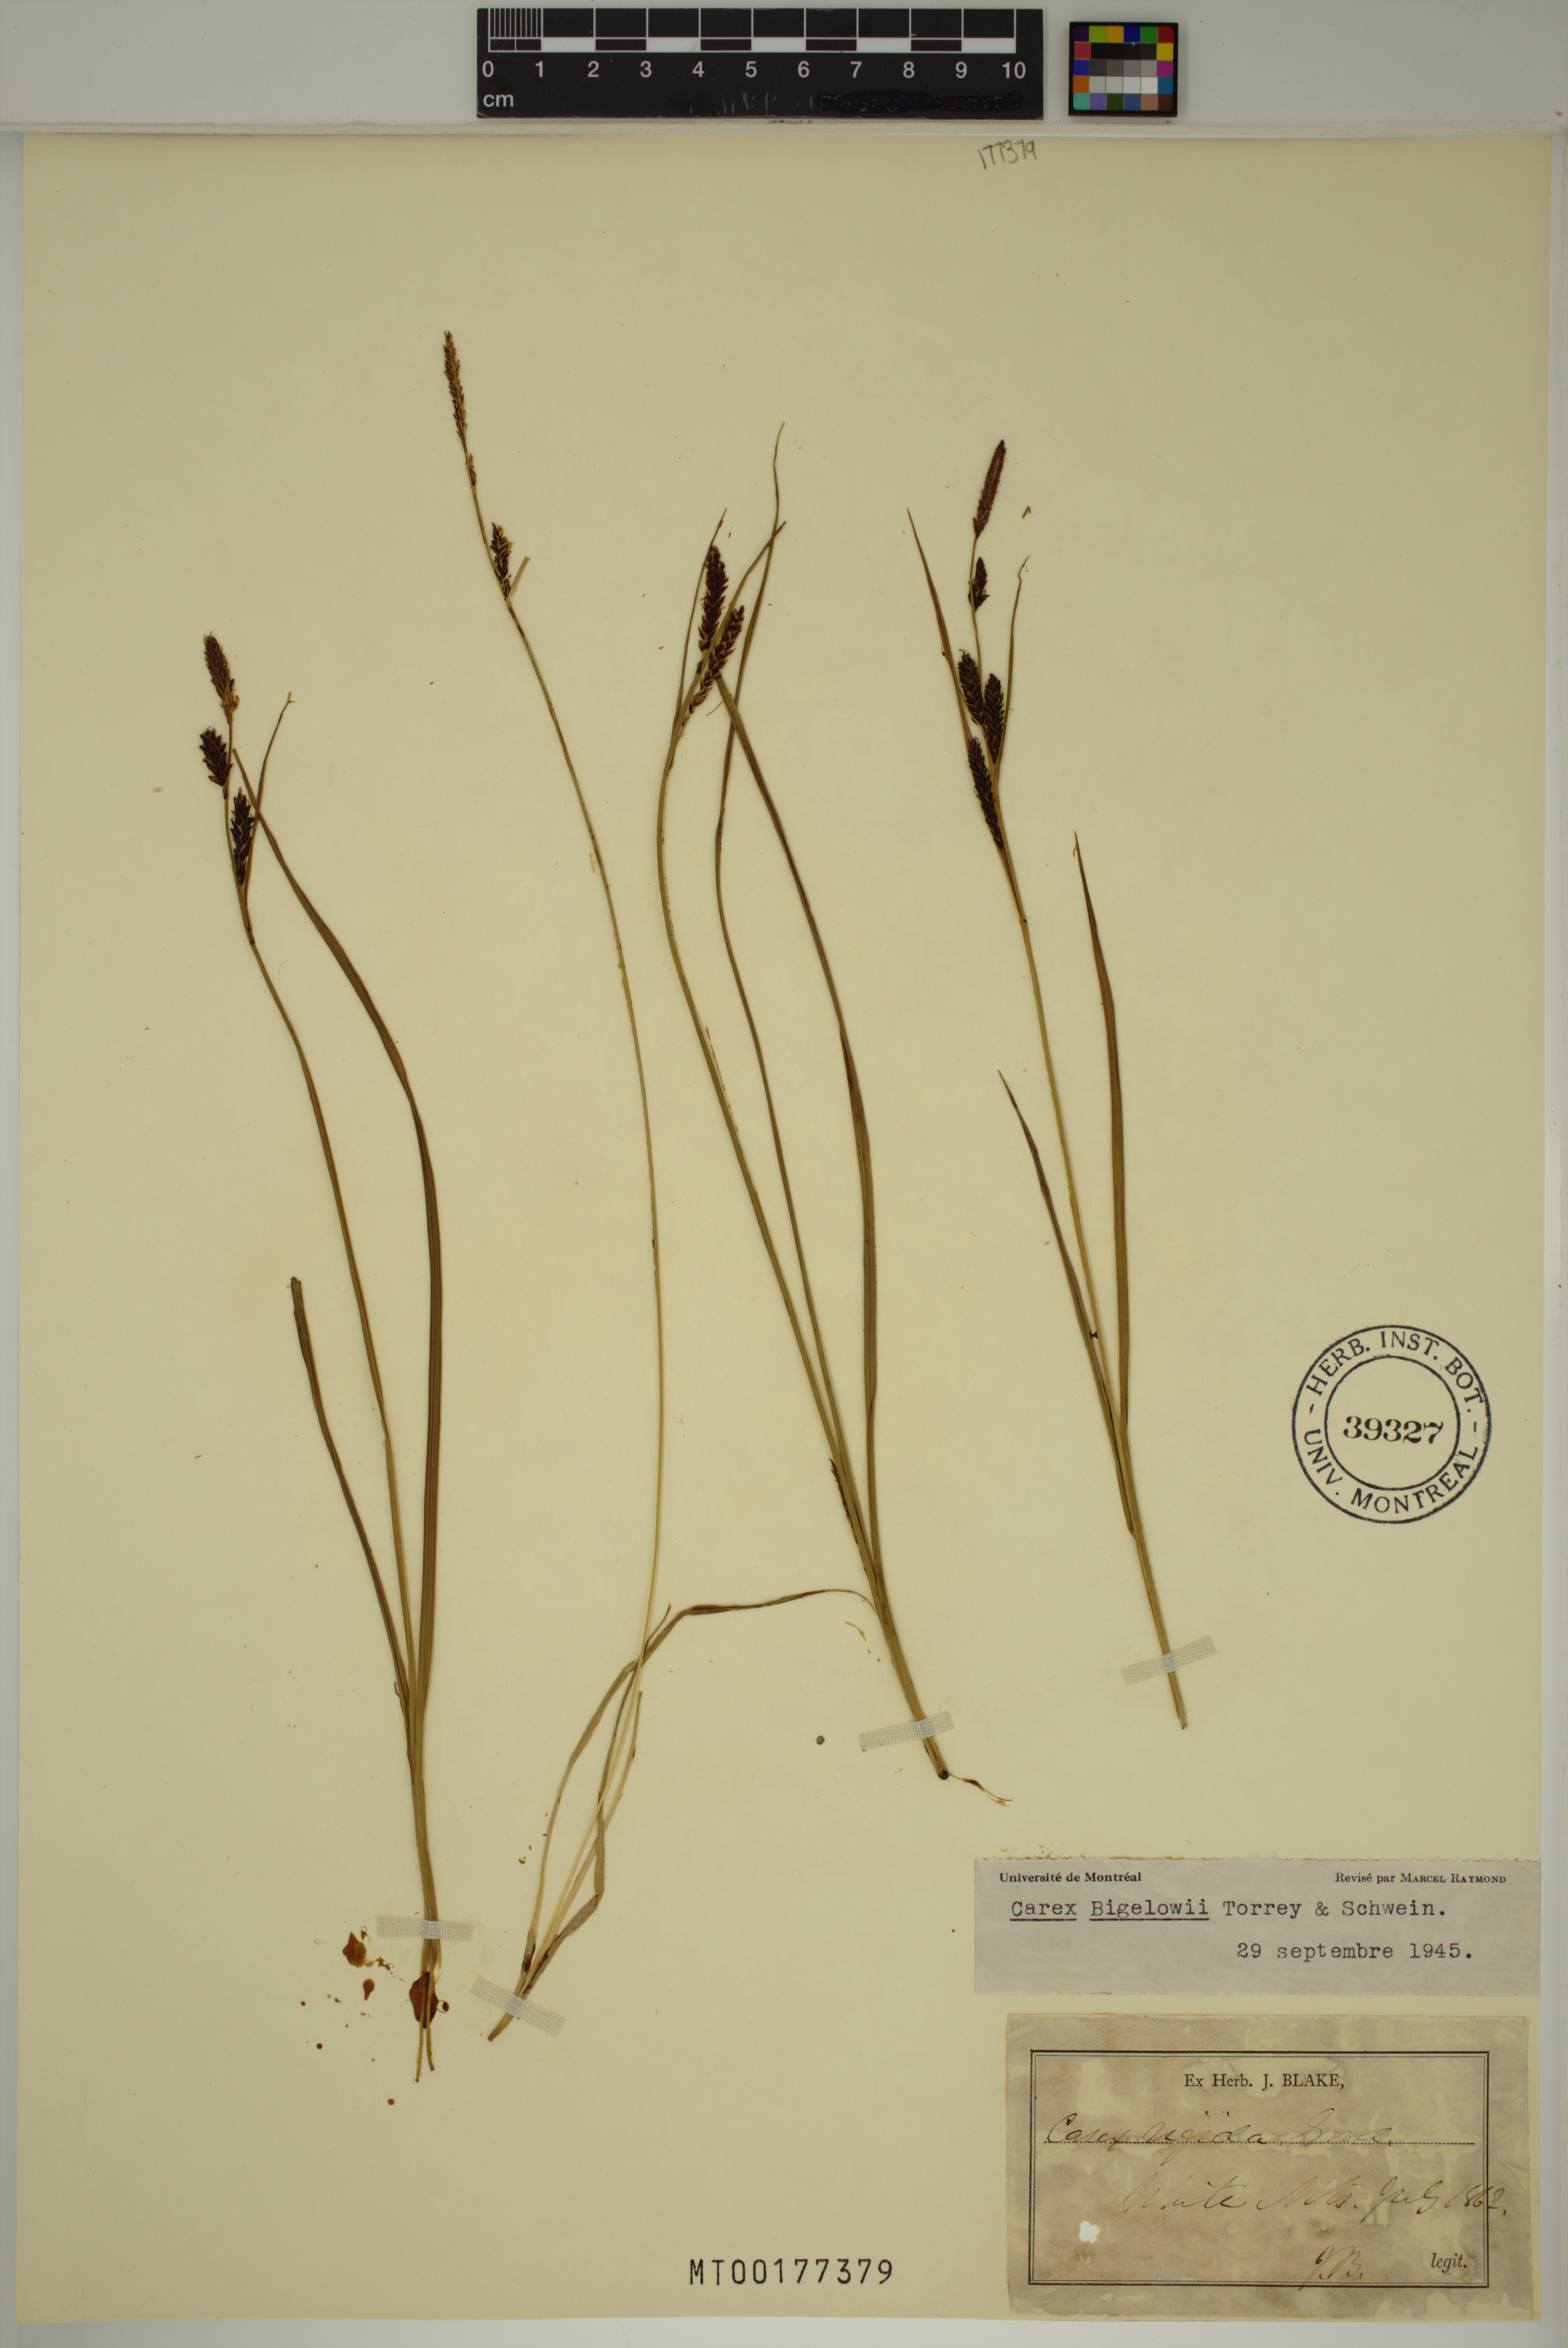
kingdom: Plantae
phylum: Tracheophyta
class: Liliopsida
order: Poales
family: Cyperaceae
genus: Carex
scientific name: Carex bigelowii
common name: Stiff sedge
